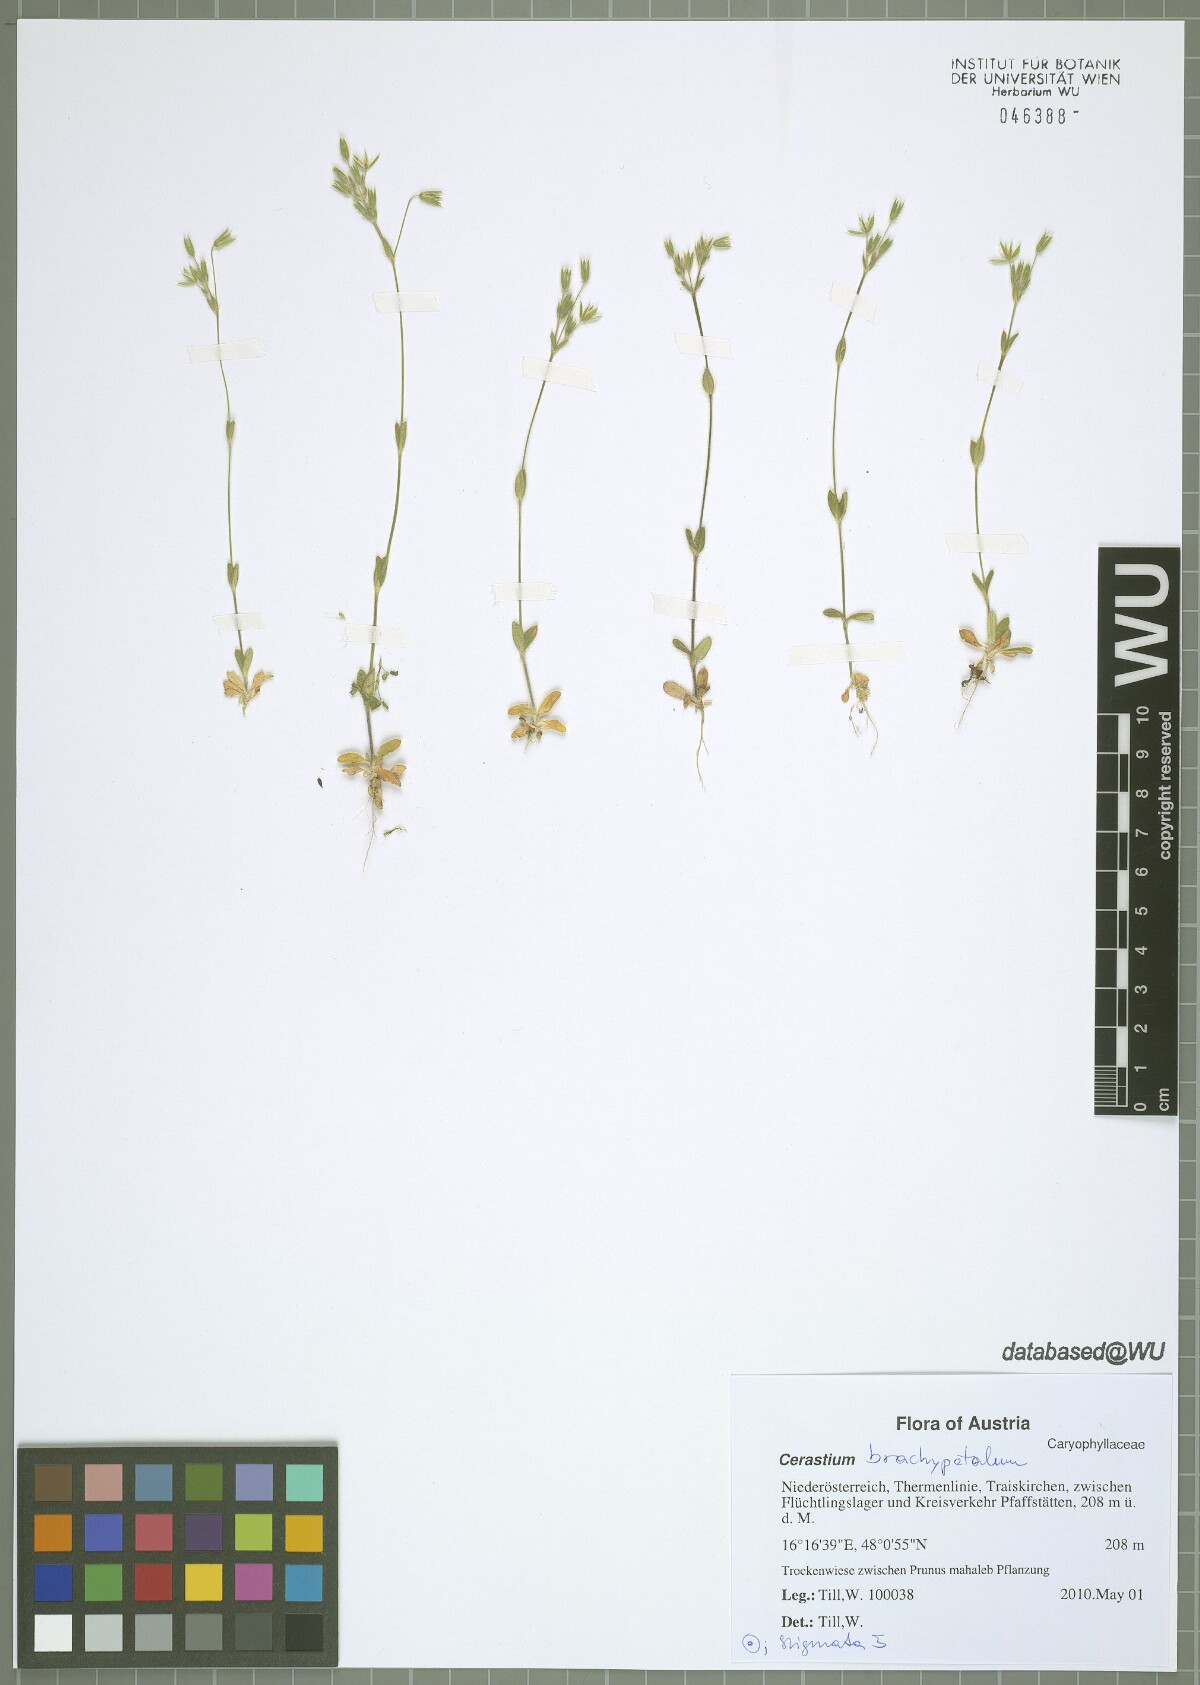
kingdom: Plantae
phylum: Tracheophyta
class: Magnoliopsida
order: Caryophyllales
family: Caryophyllaceae
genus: Cerastium
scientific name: Cerastium brachypetalum
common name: Grey mouse-ear
